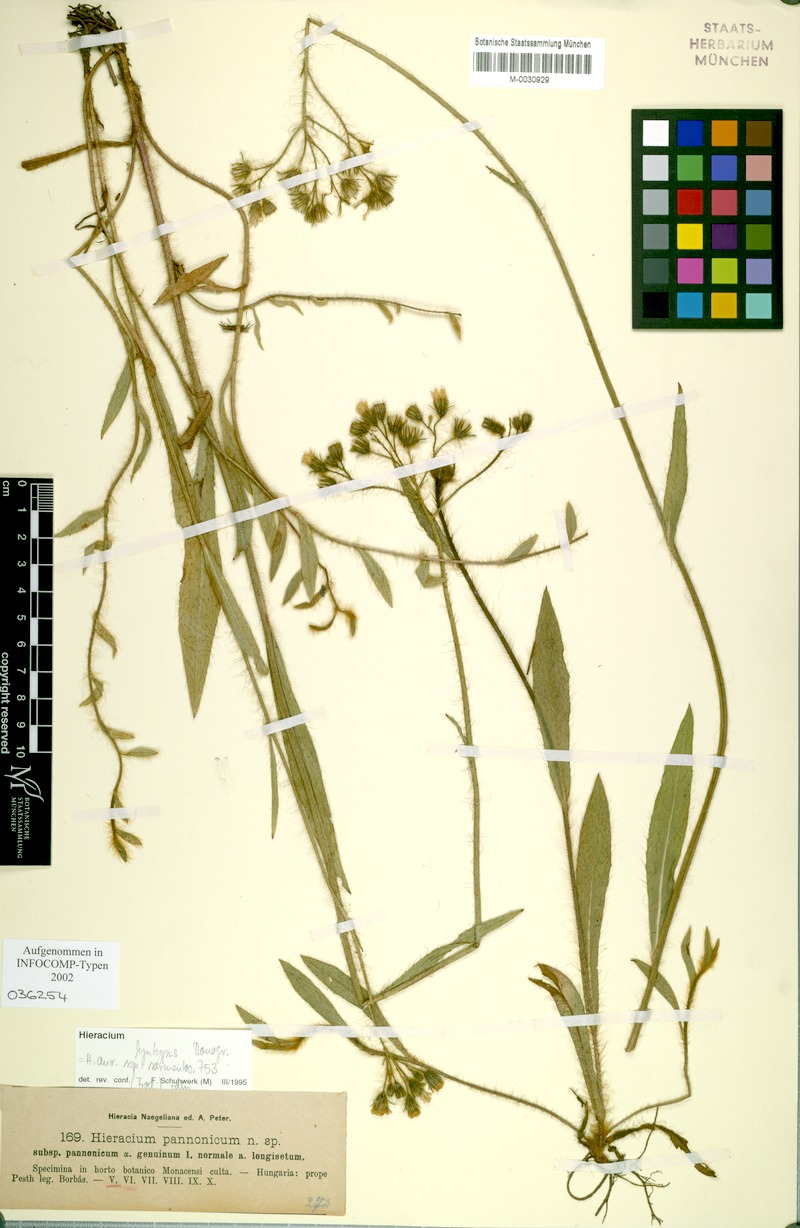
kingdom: Plantae
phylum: Tracheophyta
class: Magnoliopsida
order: Asterales
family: Asteraceae
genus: Pilosella
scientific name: Pilosella auriculoides
